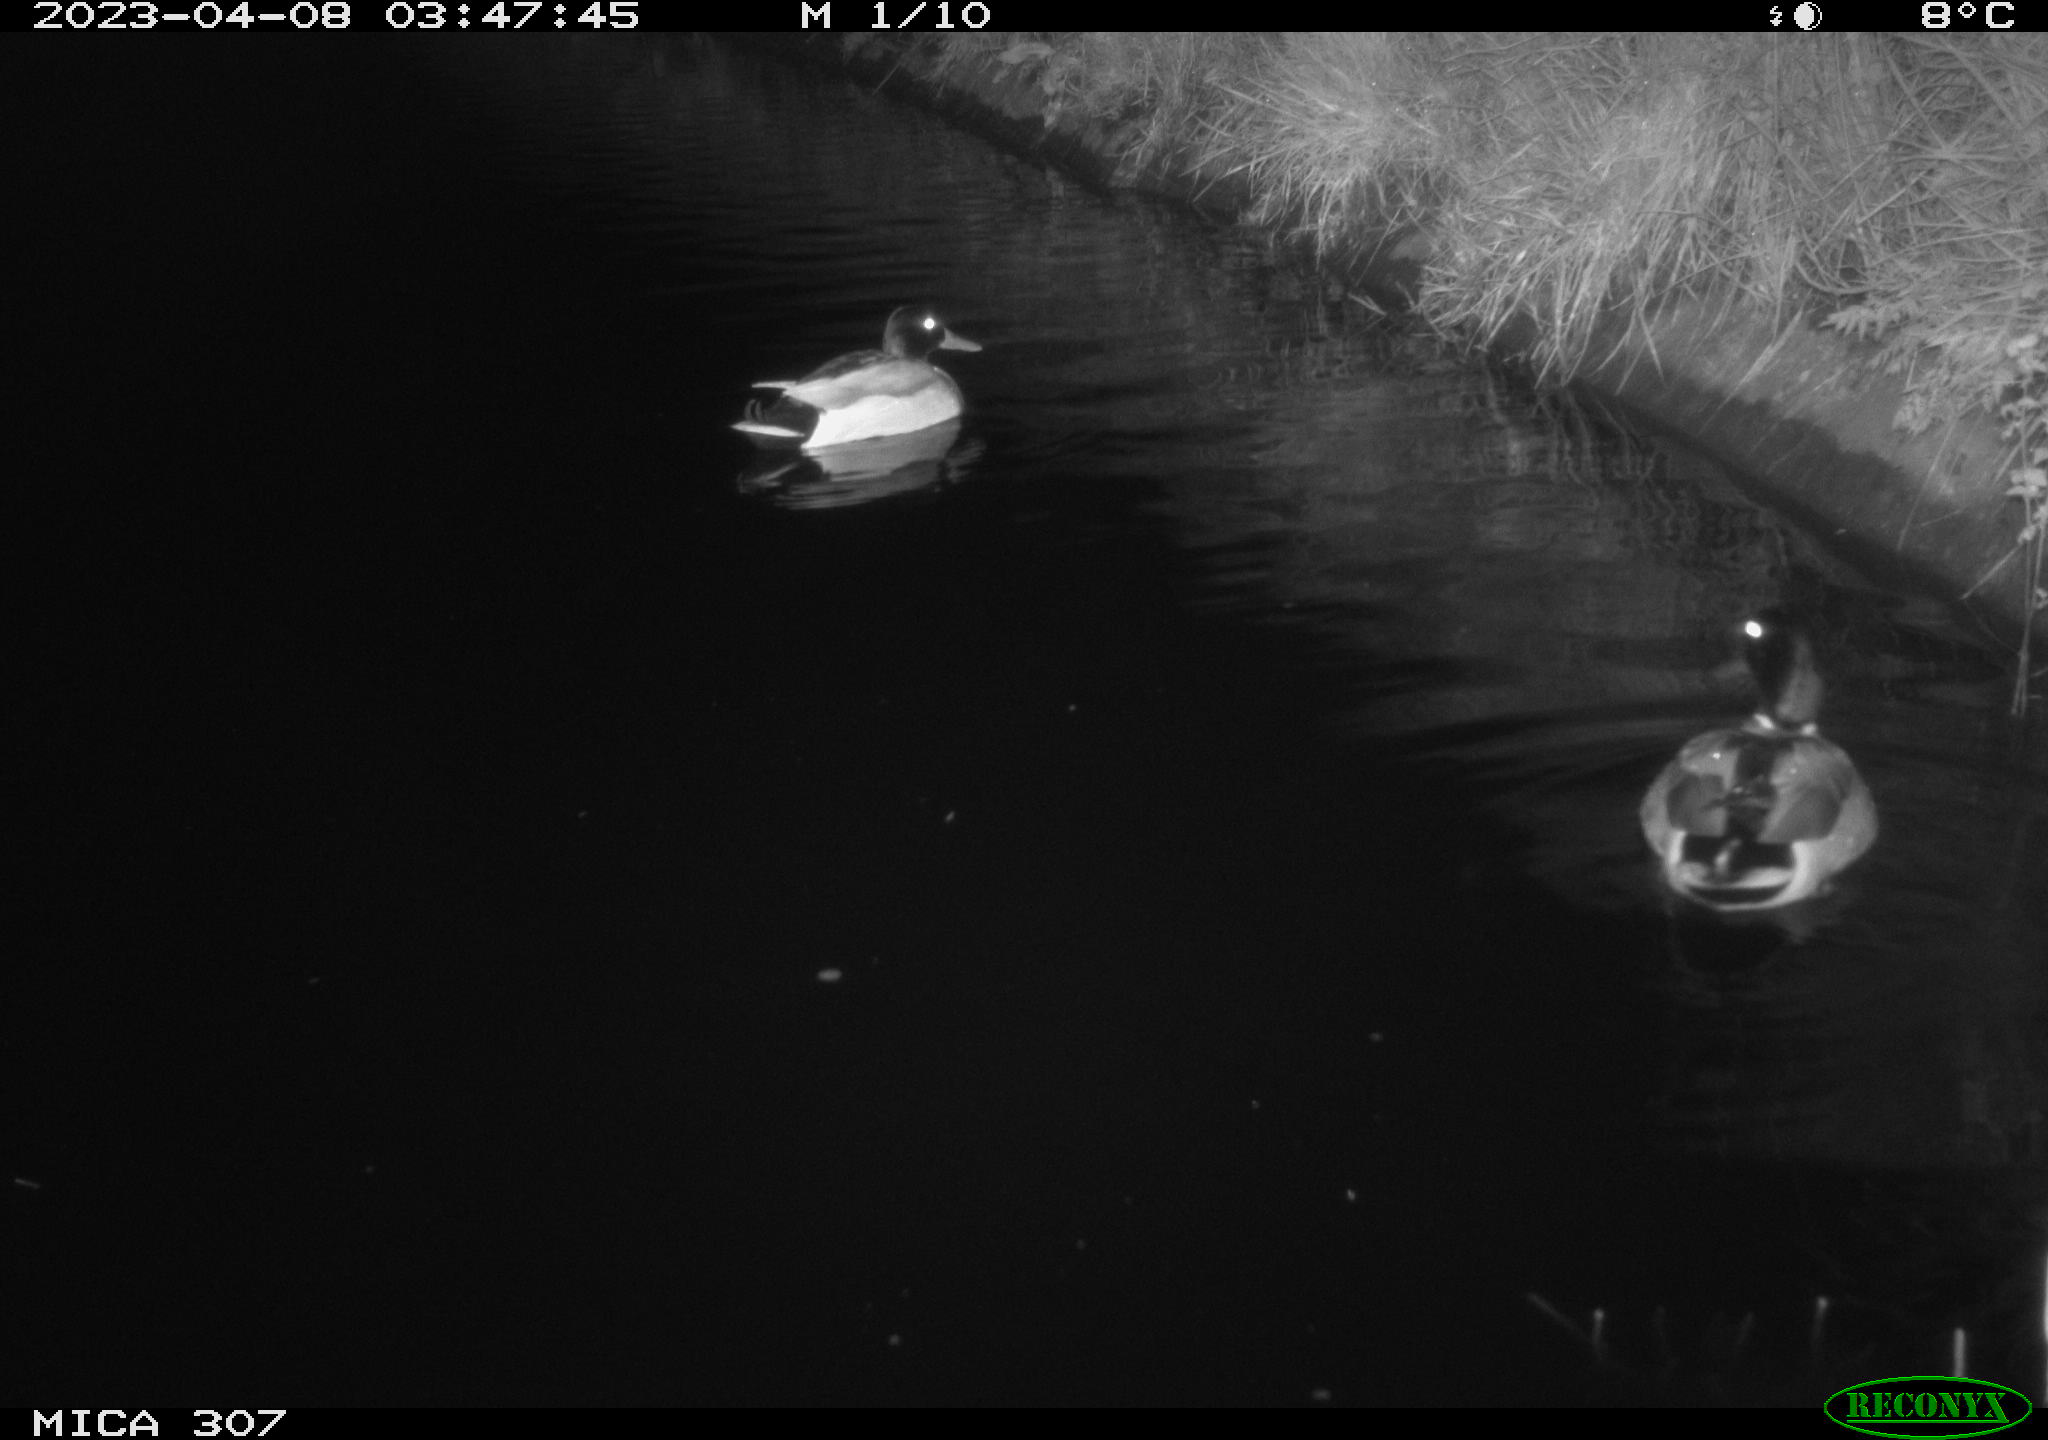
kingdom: Animalia
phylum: Chordata
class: Aves
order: Anseriformes
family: Anatidae
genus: Anas
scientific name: Anas
